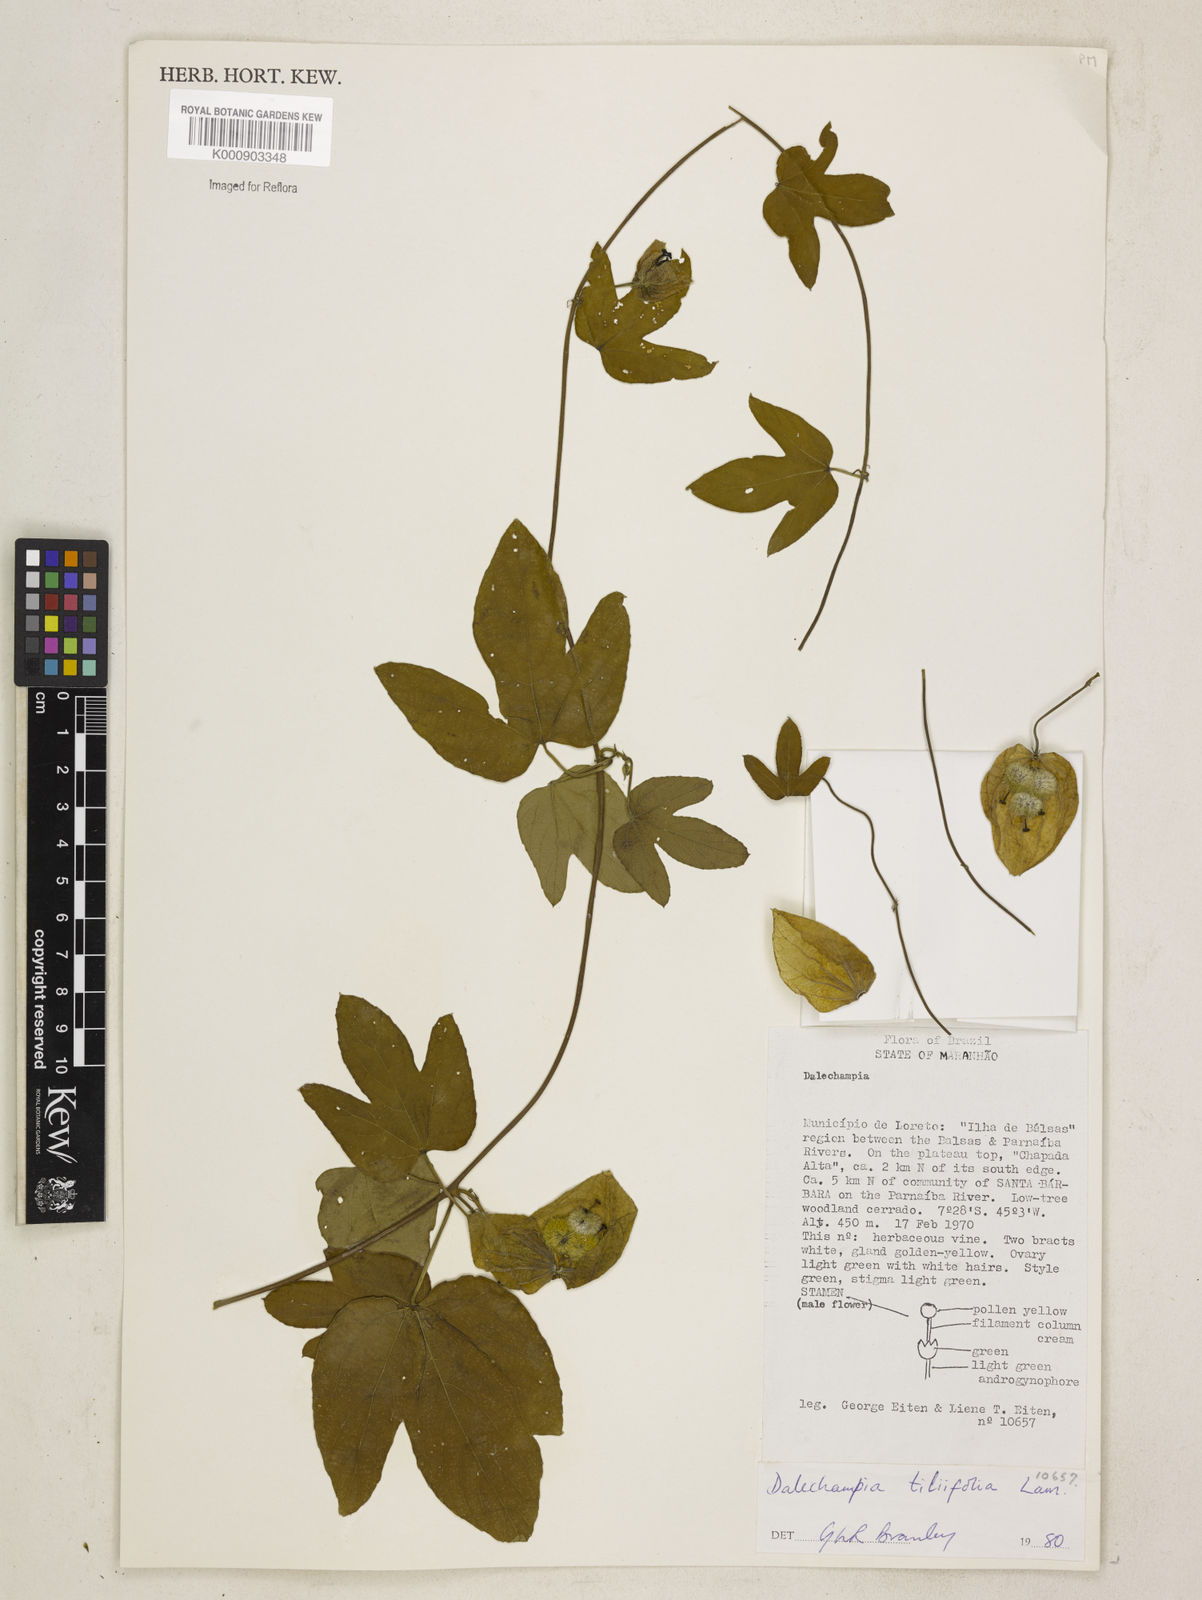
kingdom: Plantae
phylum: Tracheophyta
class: Magnoliopsida
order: Malpighiales
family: Euphorbiaceae
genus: Dalechampia
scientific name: Dalechampia tiliifolia
